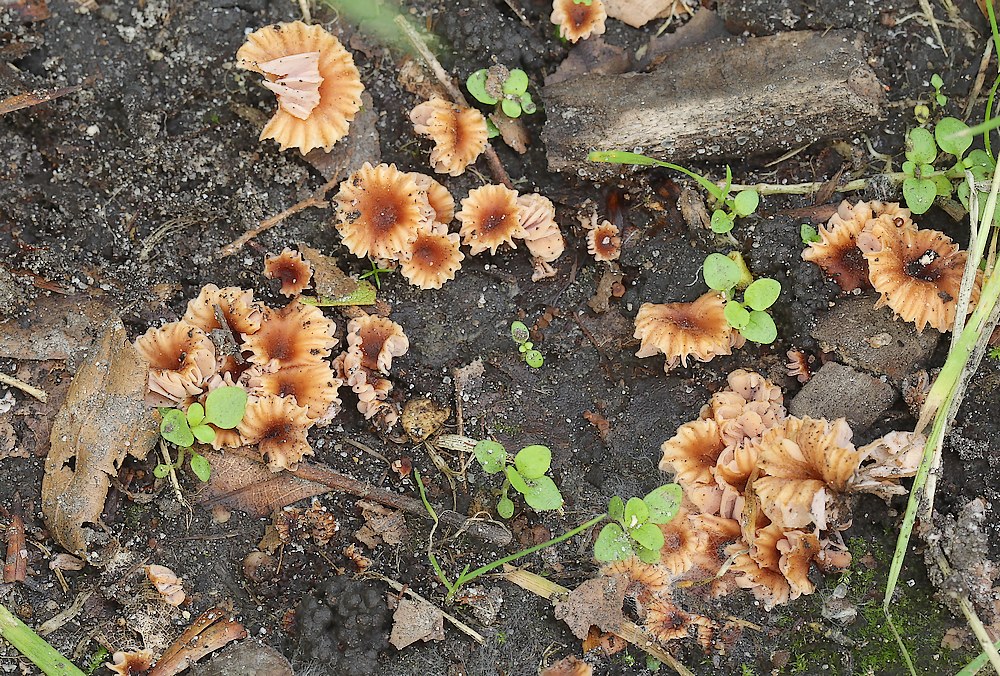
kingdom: Fungi
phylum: Basidiomycota
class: Agaricomycetes
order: Agaricales
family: Hydnangiaceae
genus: Laccaria
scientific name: Laccaria tortilis
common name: krybende ametysthat
